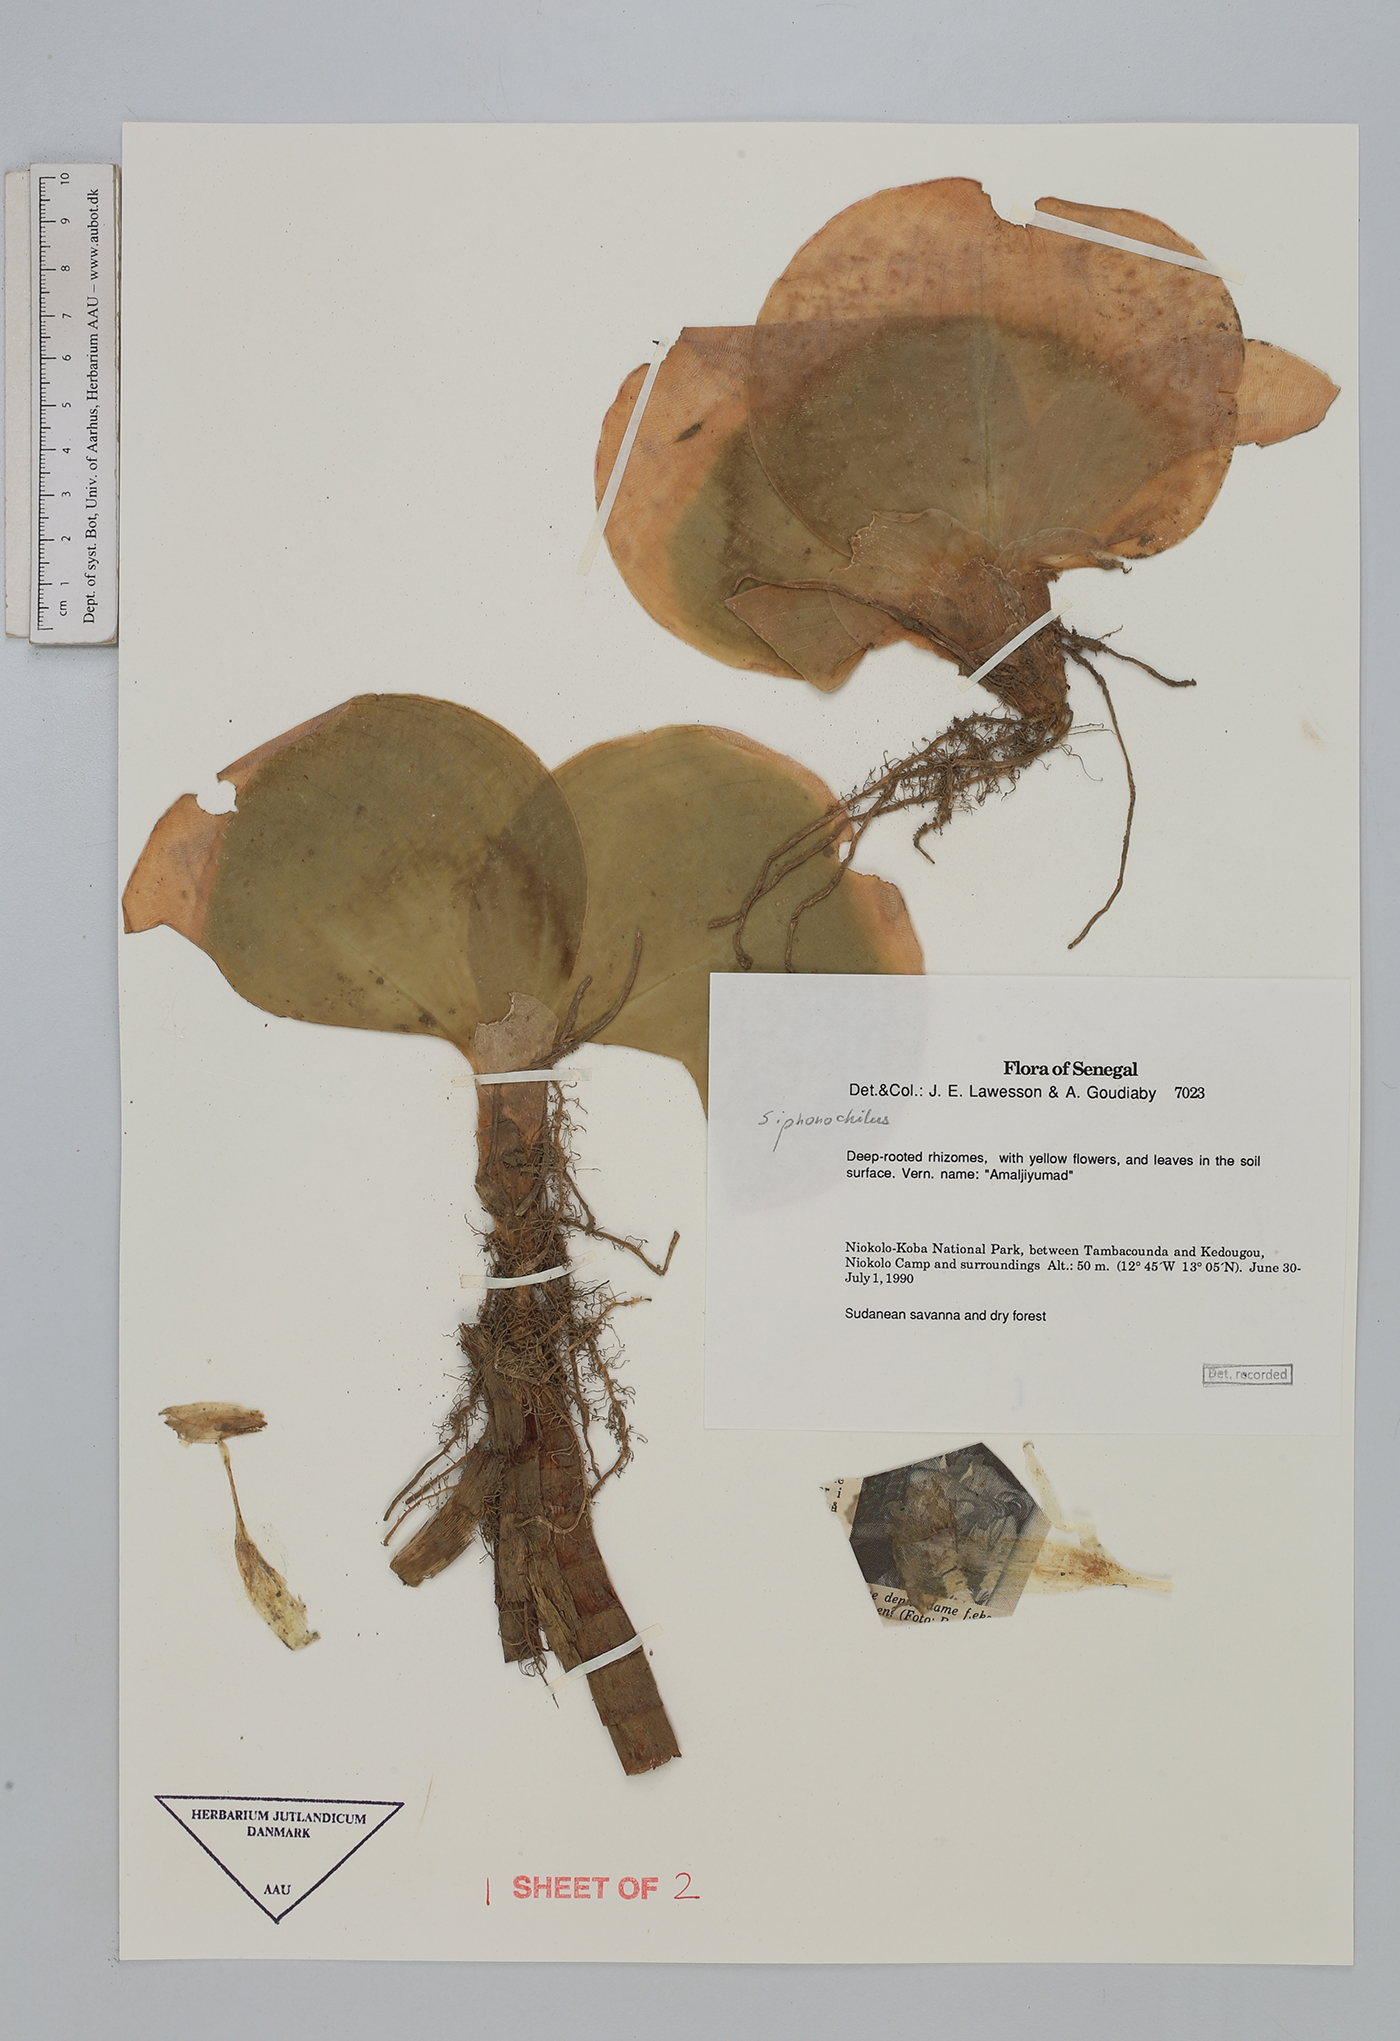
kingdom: Plantae
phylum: Tracheophyta
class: Liliopsida
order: Zingiberales
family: Zingiberaceae
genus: Siphonochilus
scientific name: Siphonochilus
